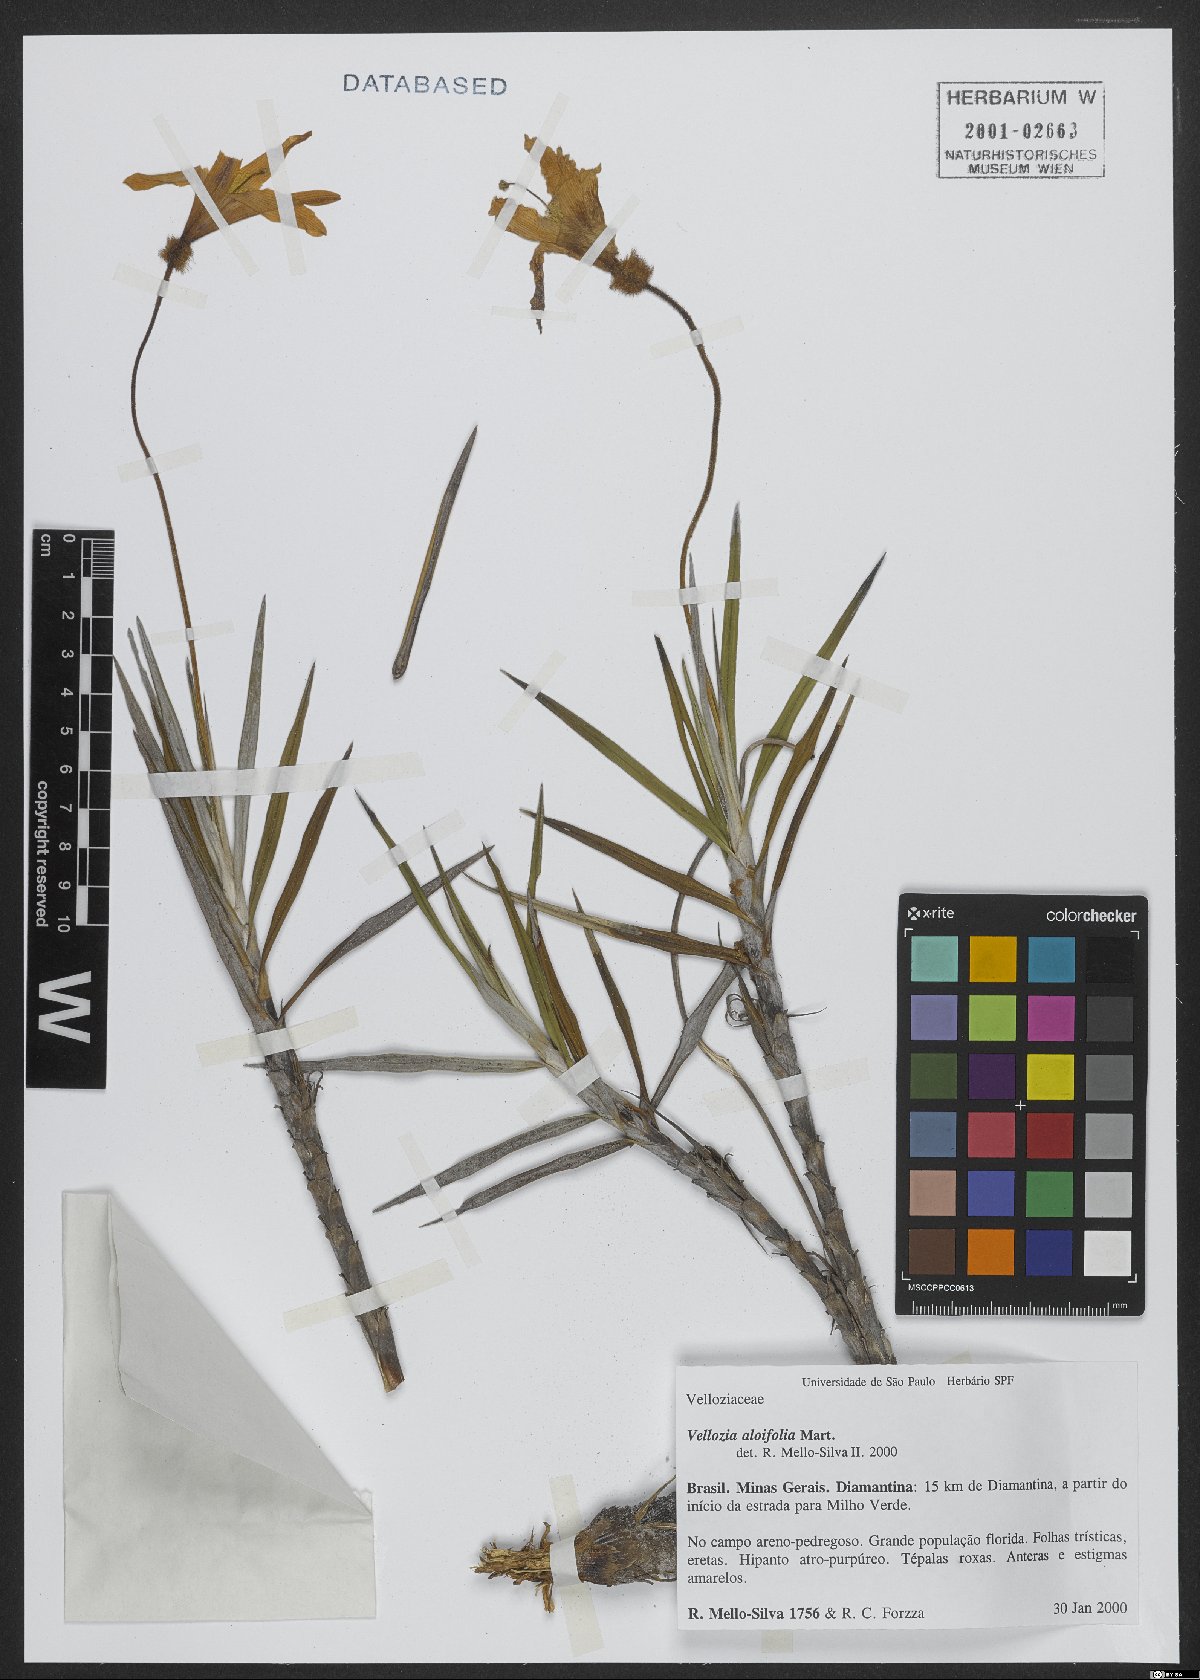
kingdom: Plantae
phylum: Tracheophyta
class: Liliopsida
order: Pandanales
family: Velloziaceae
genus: Vellozia
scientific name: Vellozia aloifolia
